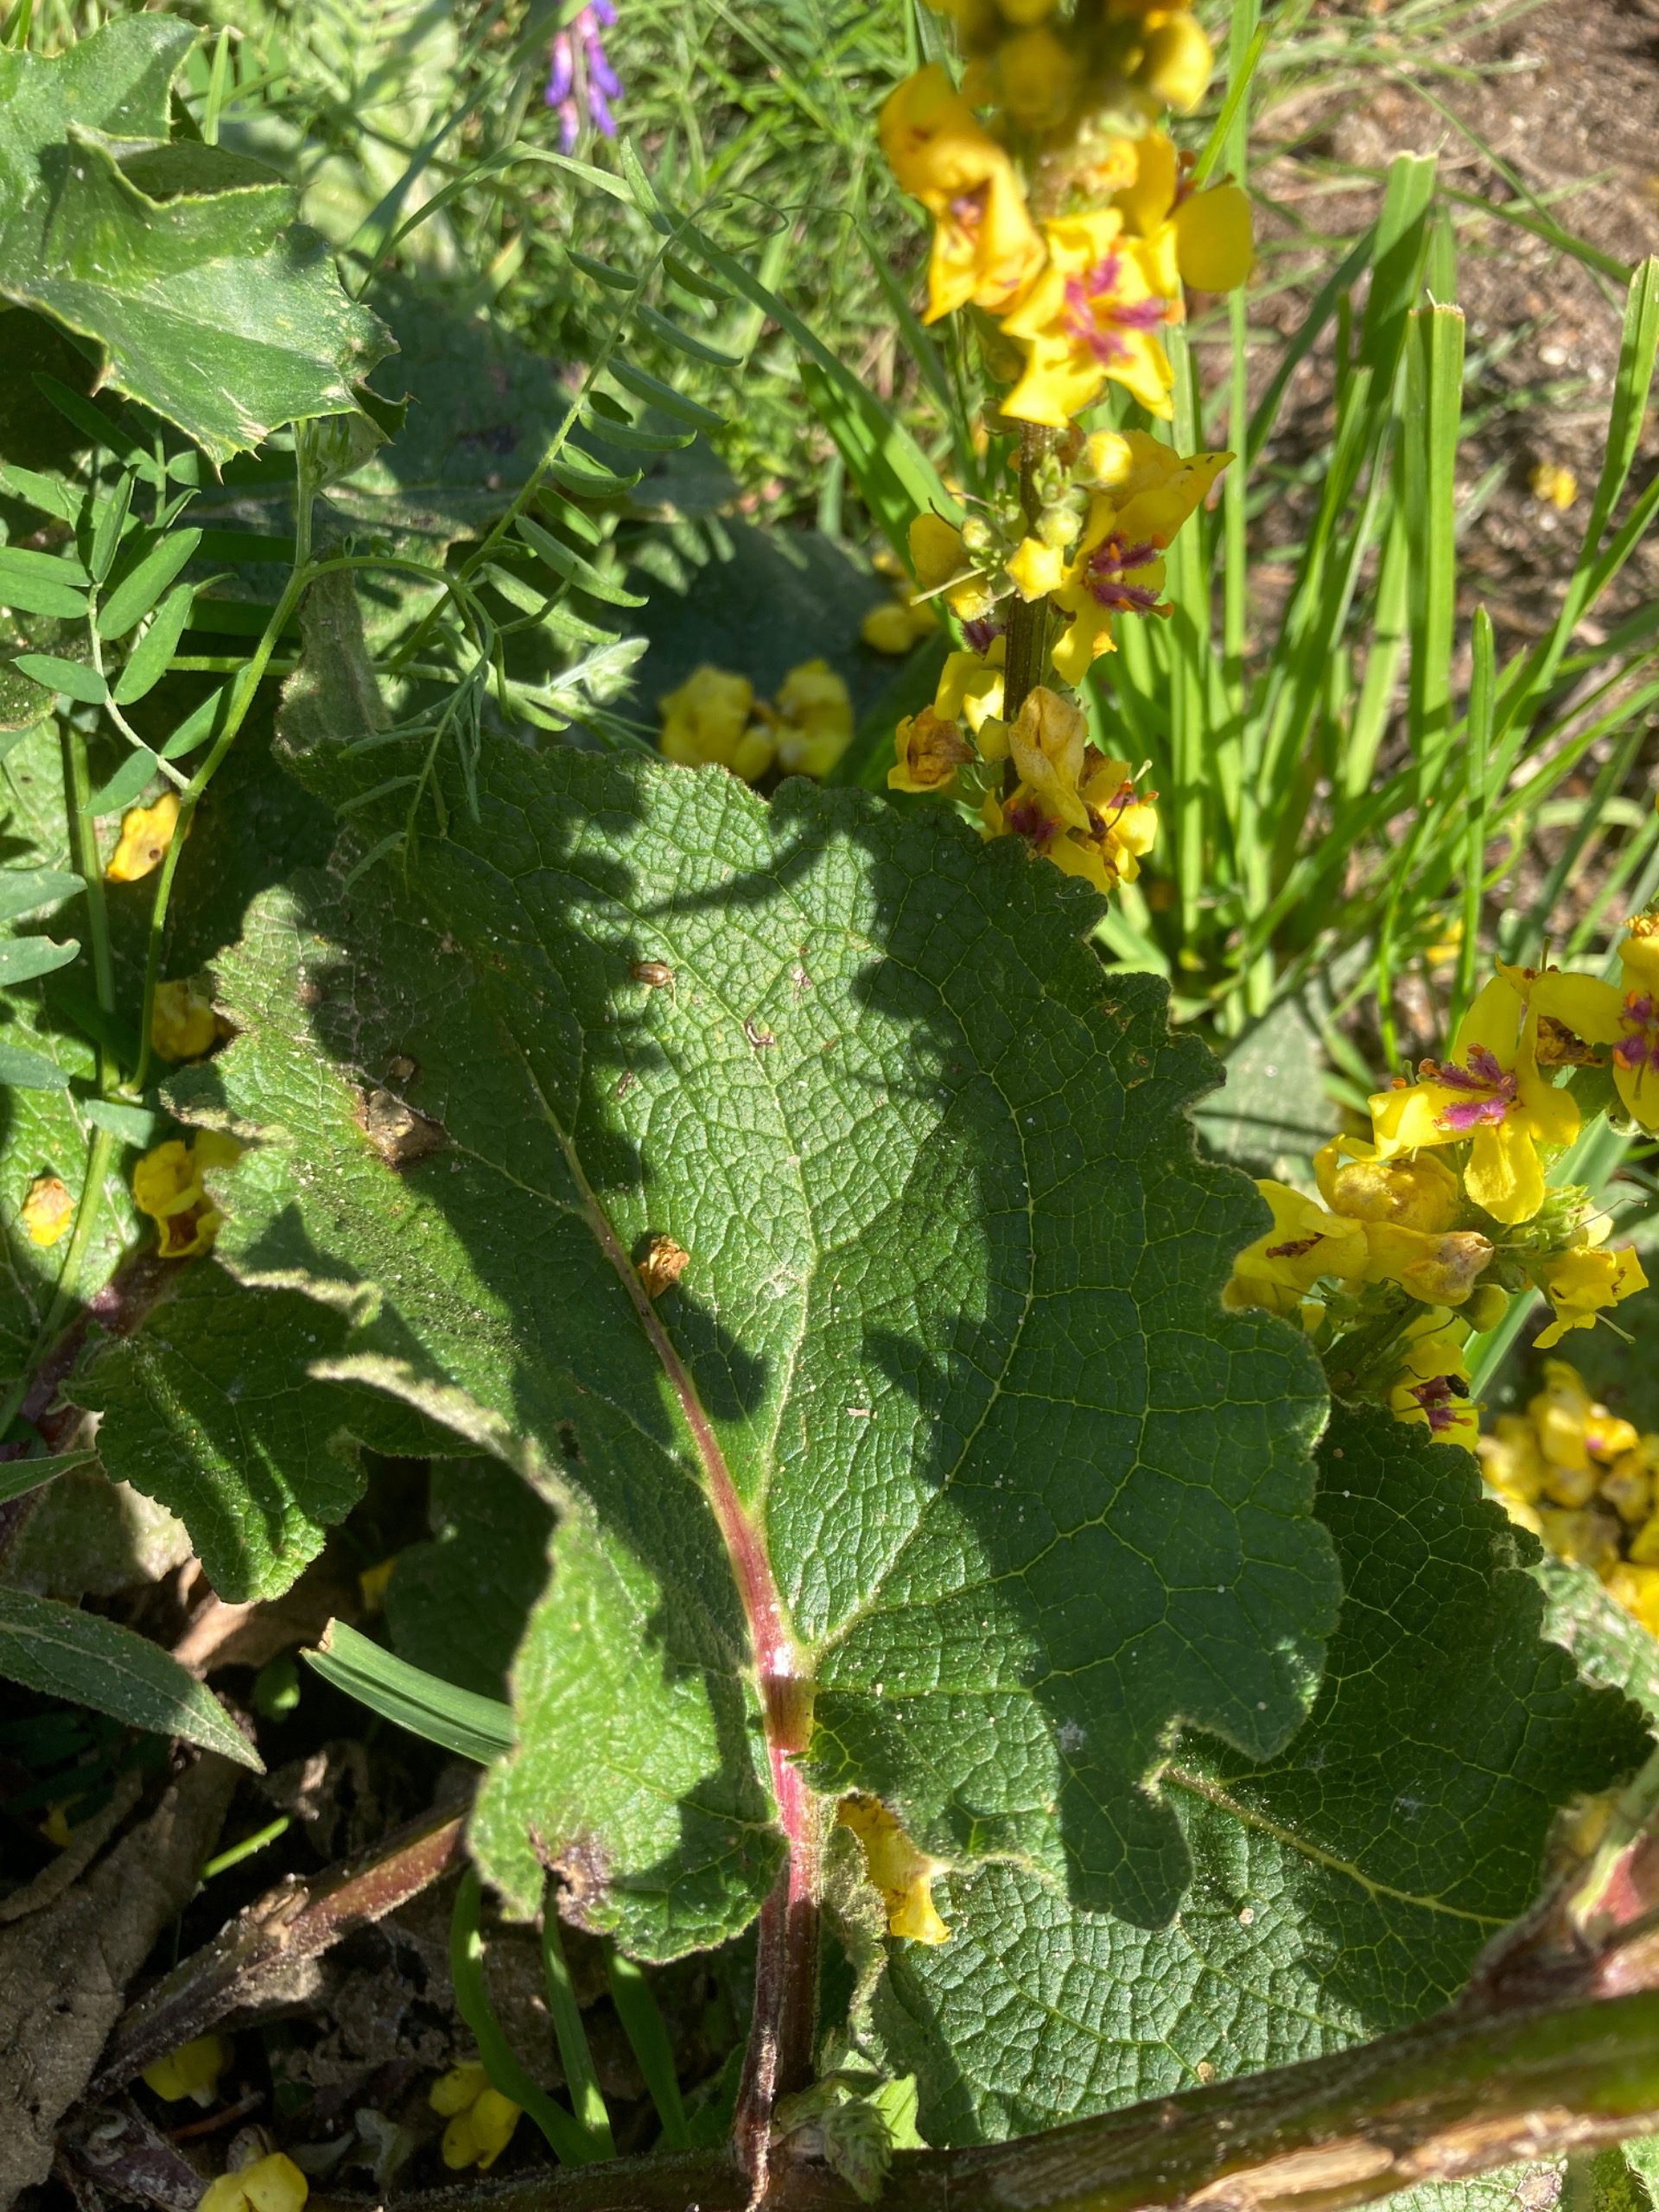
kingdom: Plantae
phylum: Tracheophyta
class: Magnoliopsida
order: Lamiales
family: Scrophulariaceae
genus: Verbascum
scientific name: Verbascum nigrum
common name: Mørk kongelys
